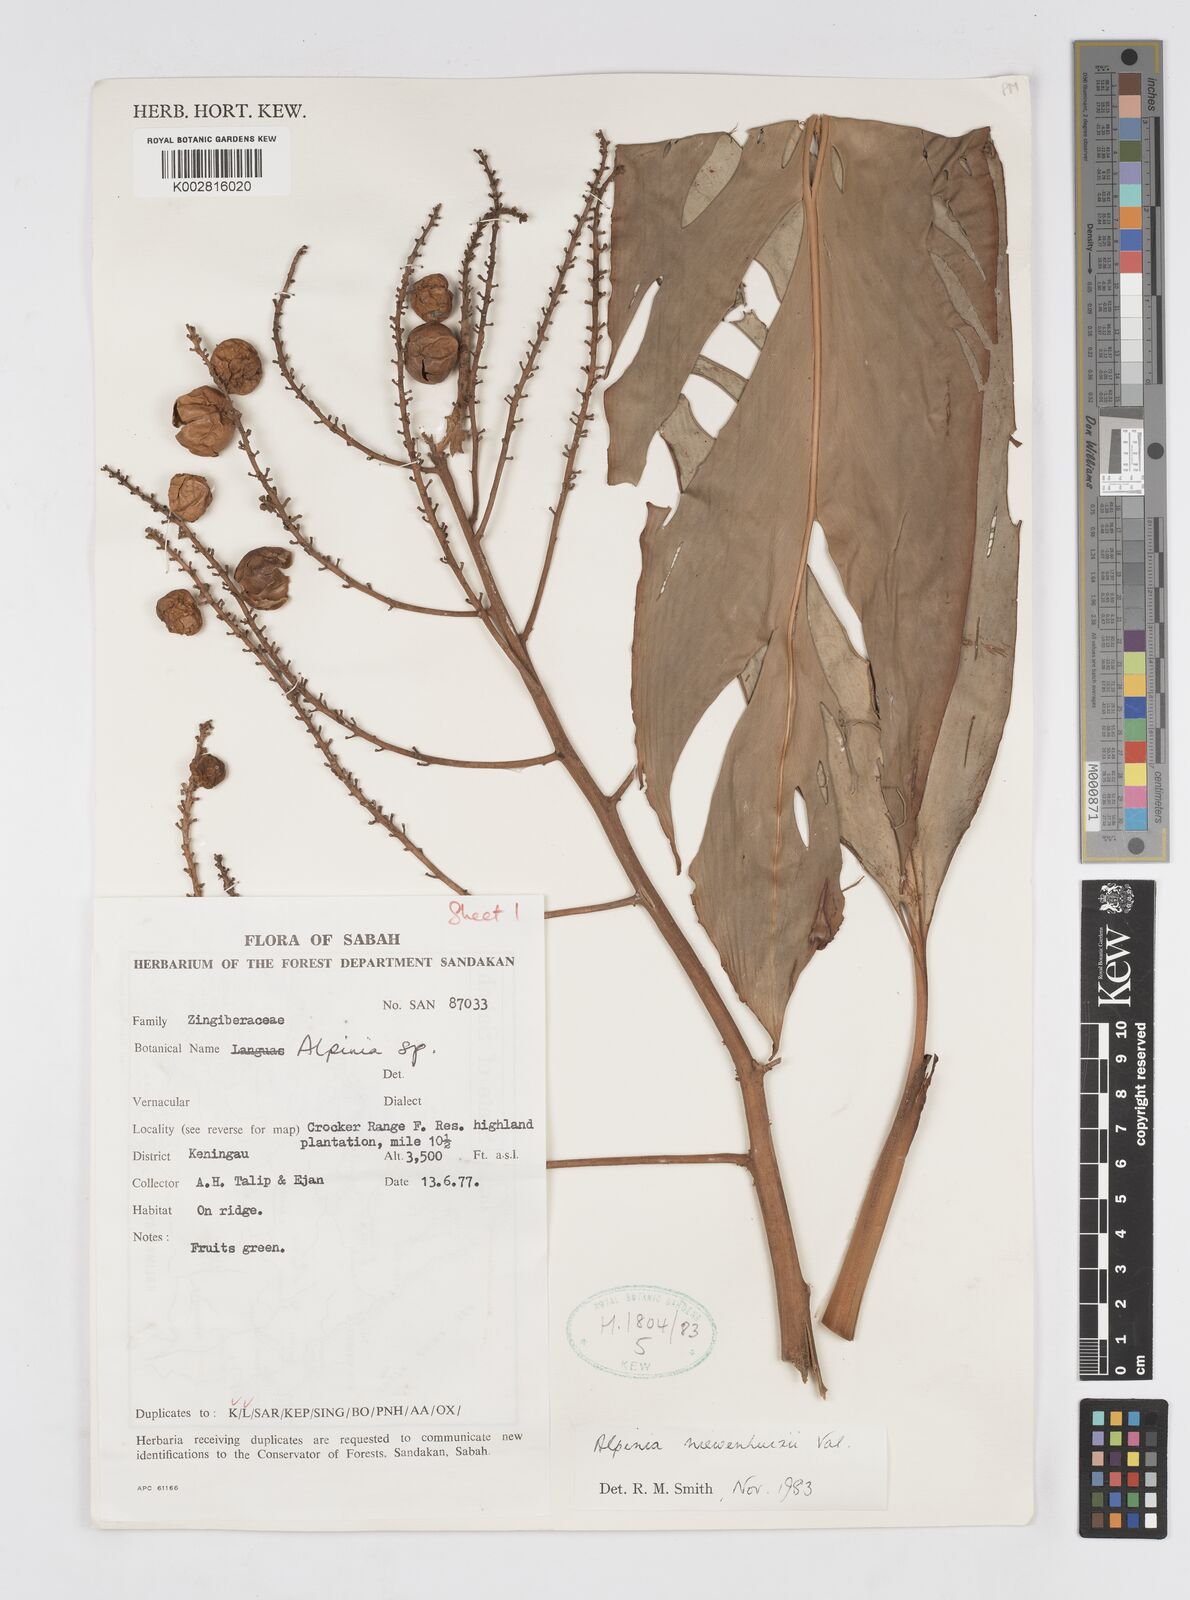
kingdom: Plantae
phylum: Tracheophyta
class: Liliopsida
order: Zingiberales
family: Zingiberaceae
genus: Alpinia
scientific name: Alpinia nieuwenhuizii
